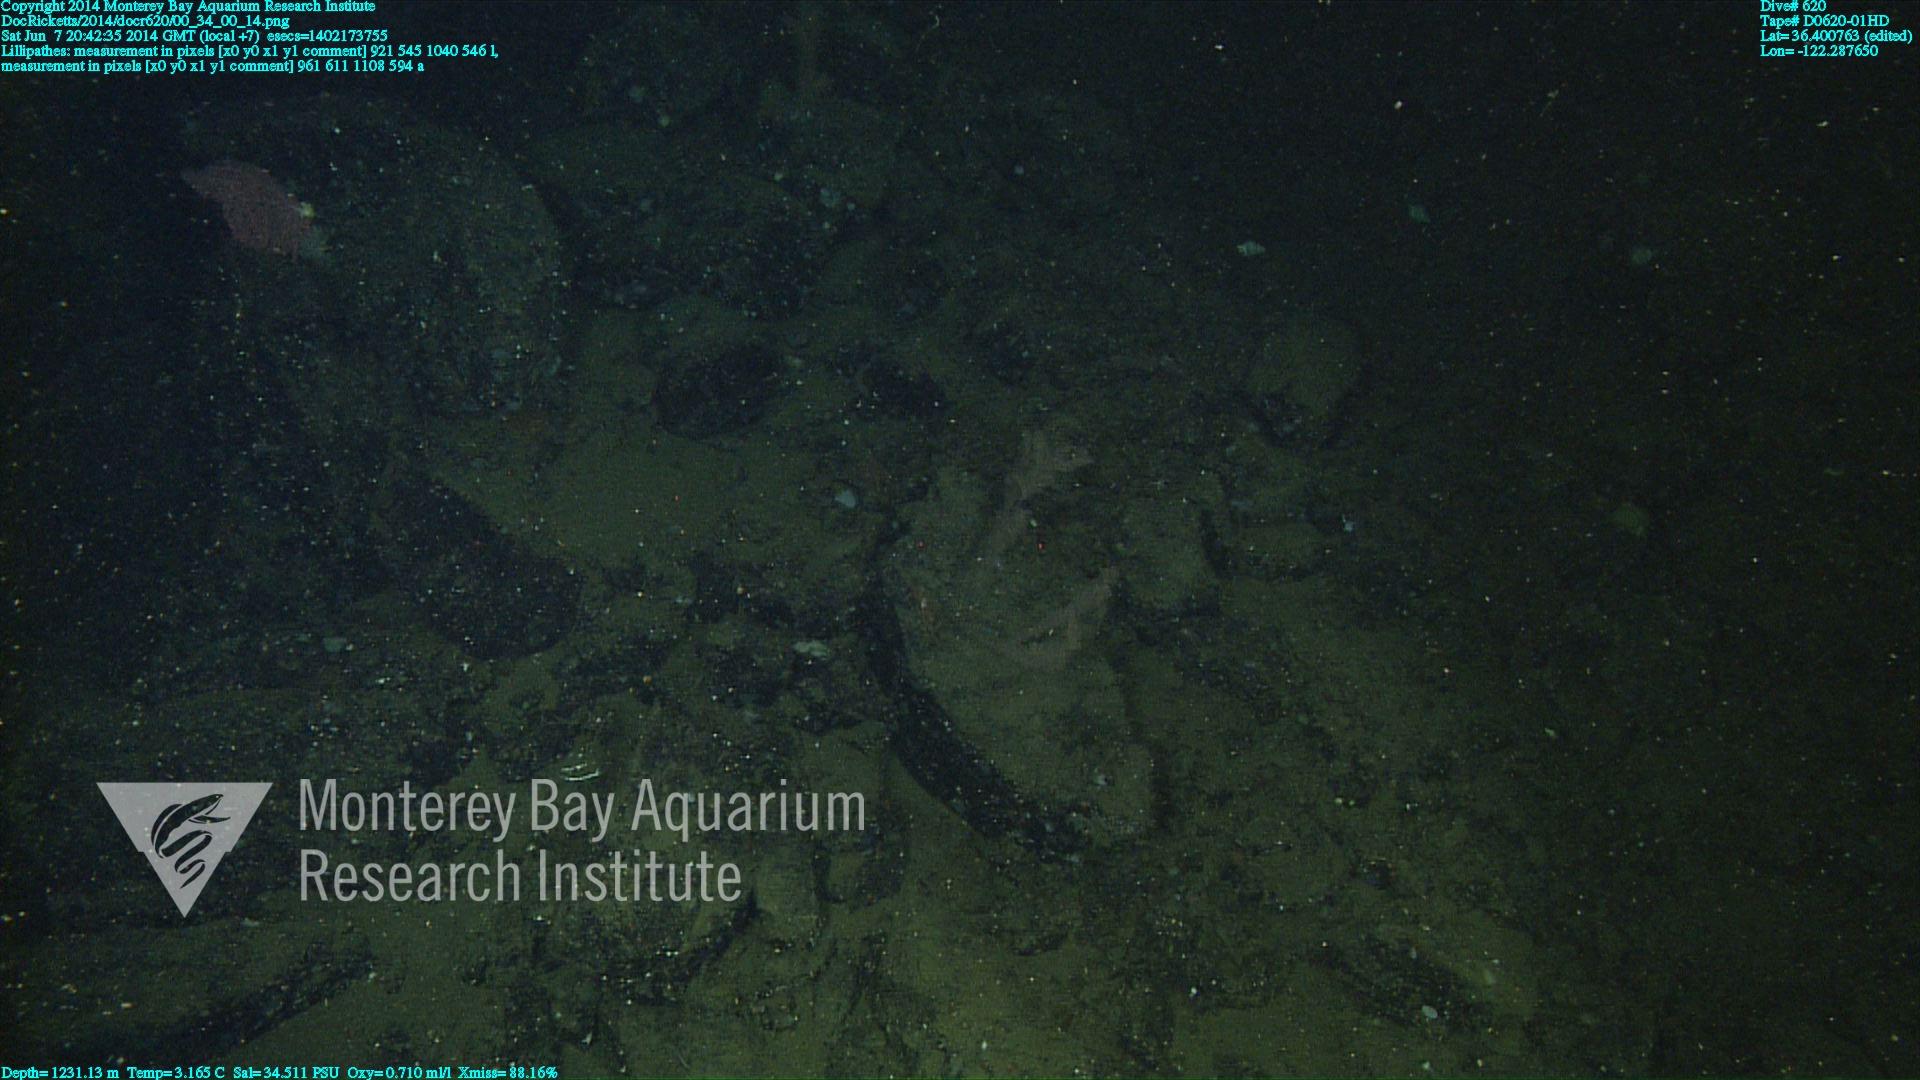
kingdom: Animalia
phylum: Cnidaria
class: Anthozoa
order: Antipatharia
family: Schizopathidae
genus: Lillipathes
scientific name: Lillipathes
